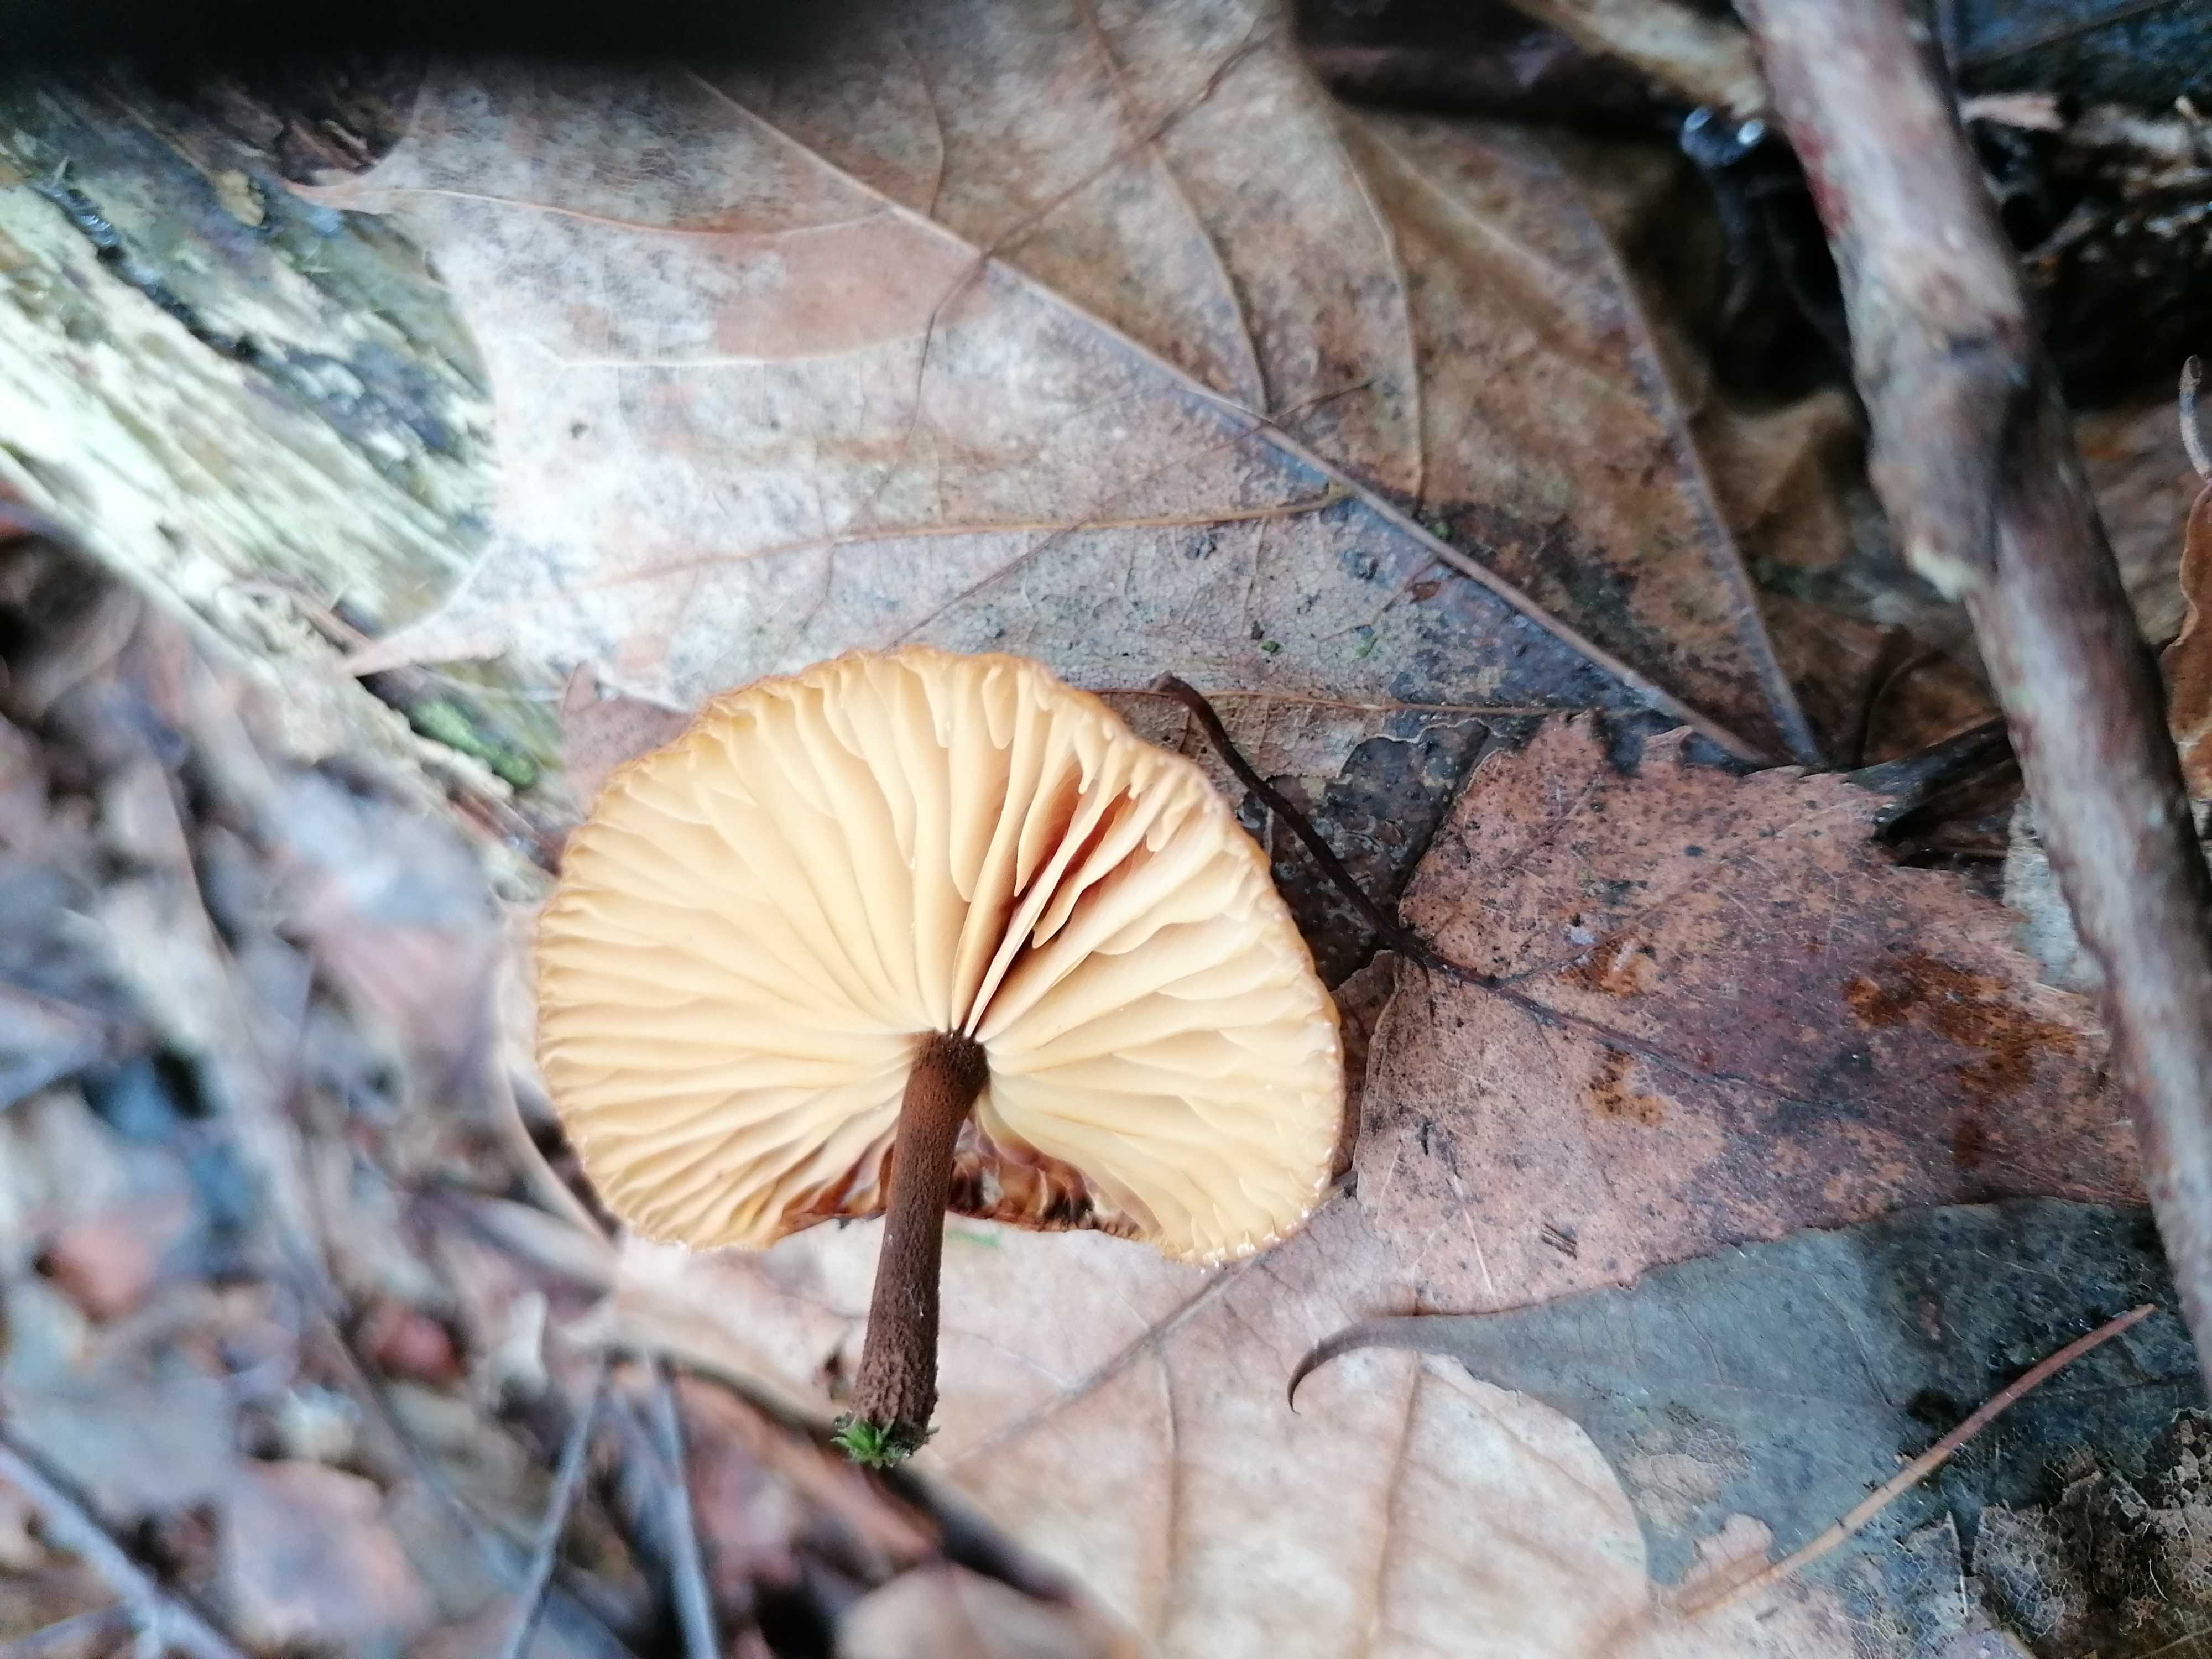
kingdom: Fungi
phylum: Basidiomycota
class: Agaricomycetes
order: Agaricales
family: Physalacriaceae
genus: Flammulina
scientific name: Flammulina velutipes
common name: gul fløjlsfod
